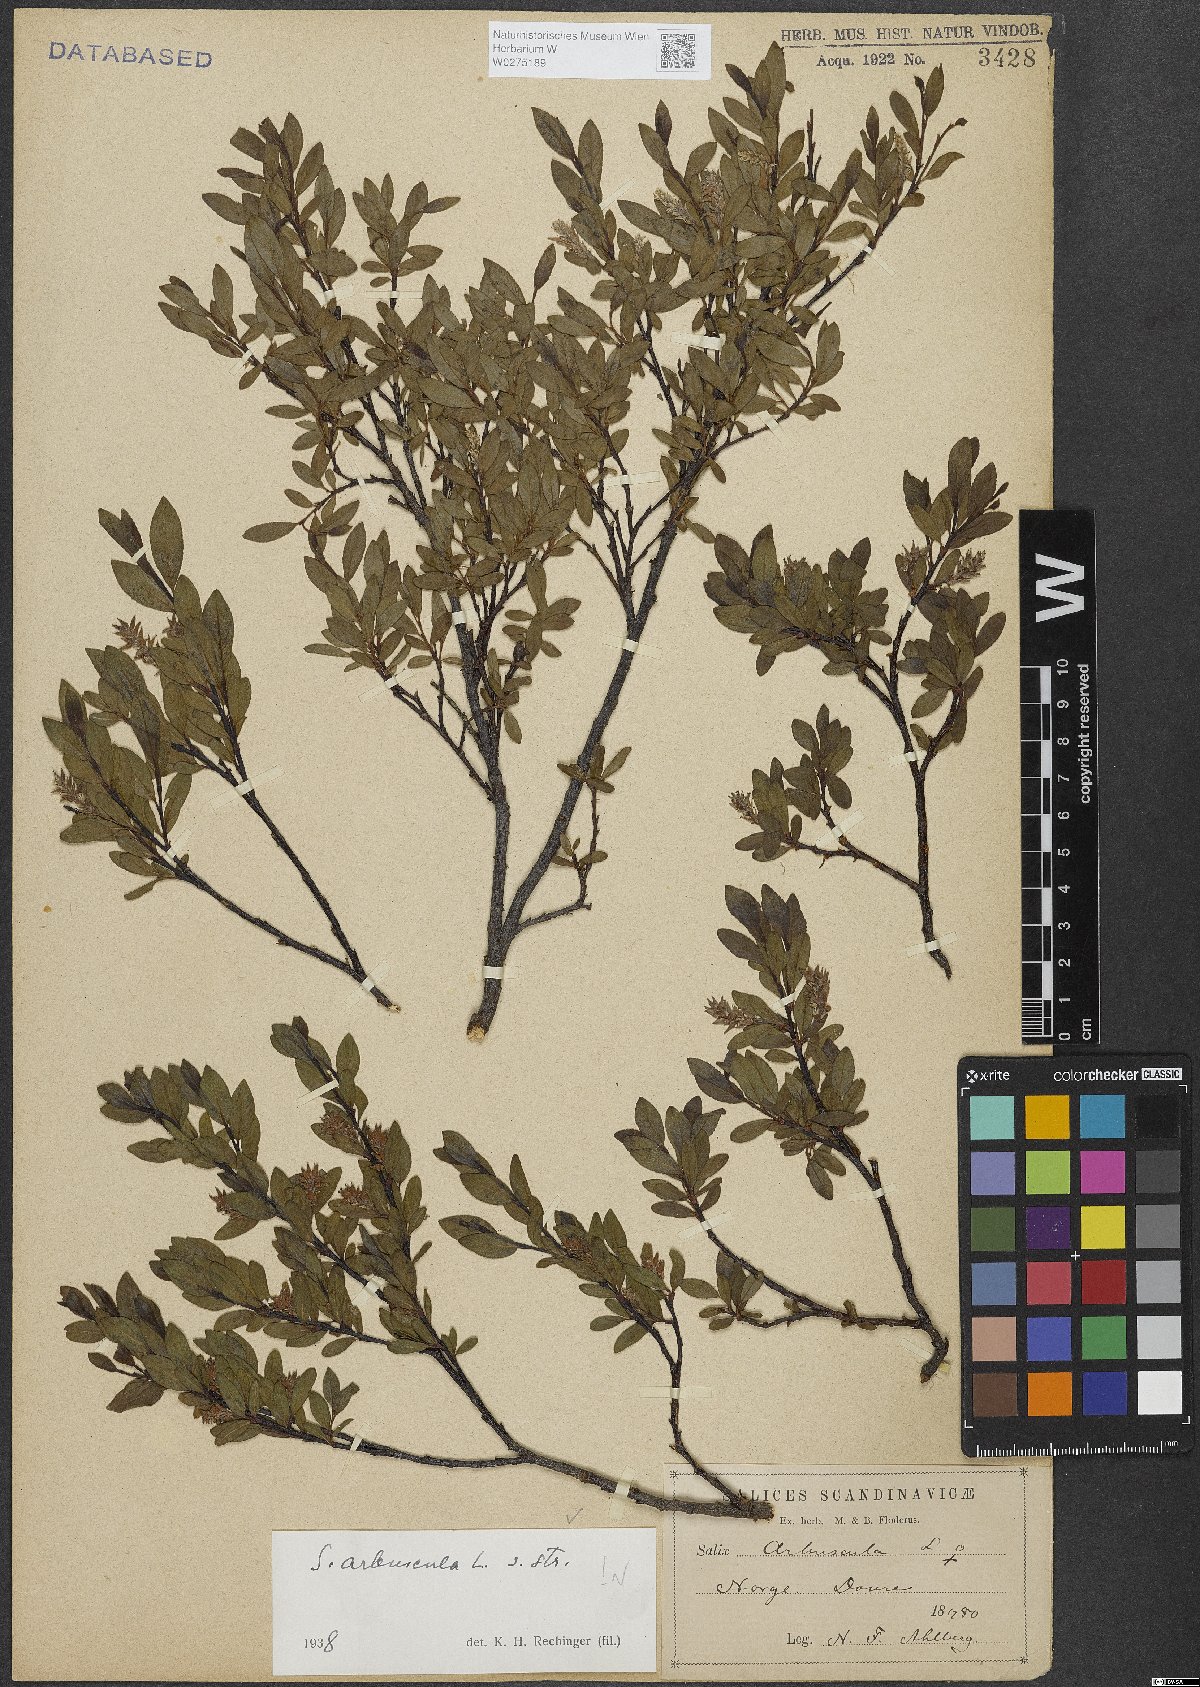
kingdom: Plantae
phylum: Tracheophyta
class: Magnoliopsida
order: Malpighiales
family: Salicaceae
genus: Salix
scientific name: Salix arbuscula
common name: Mountain willow
